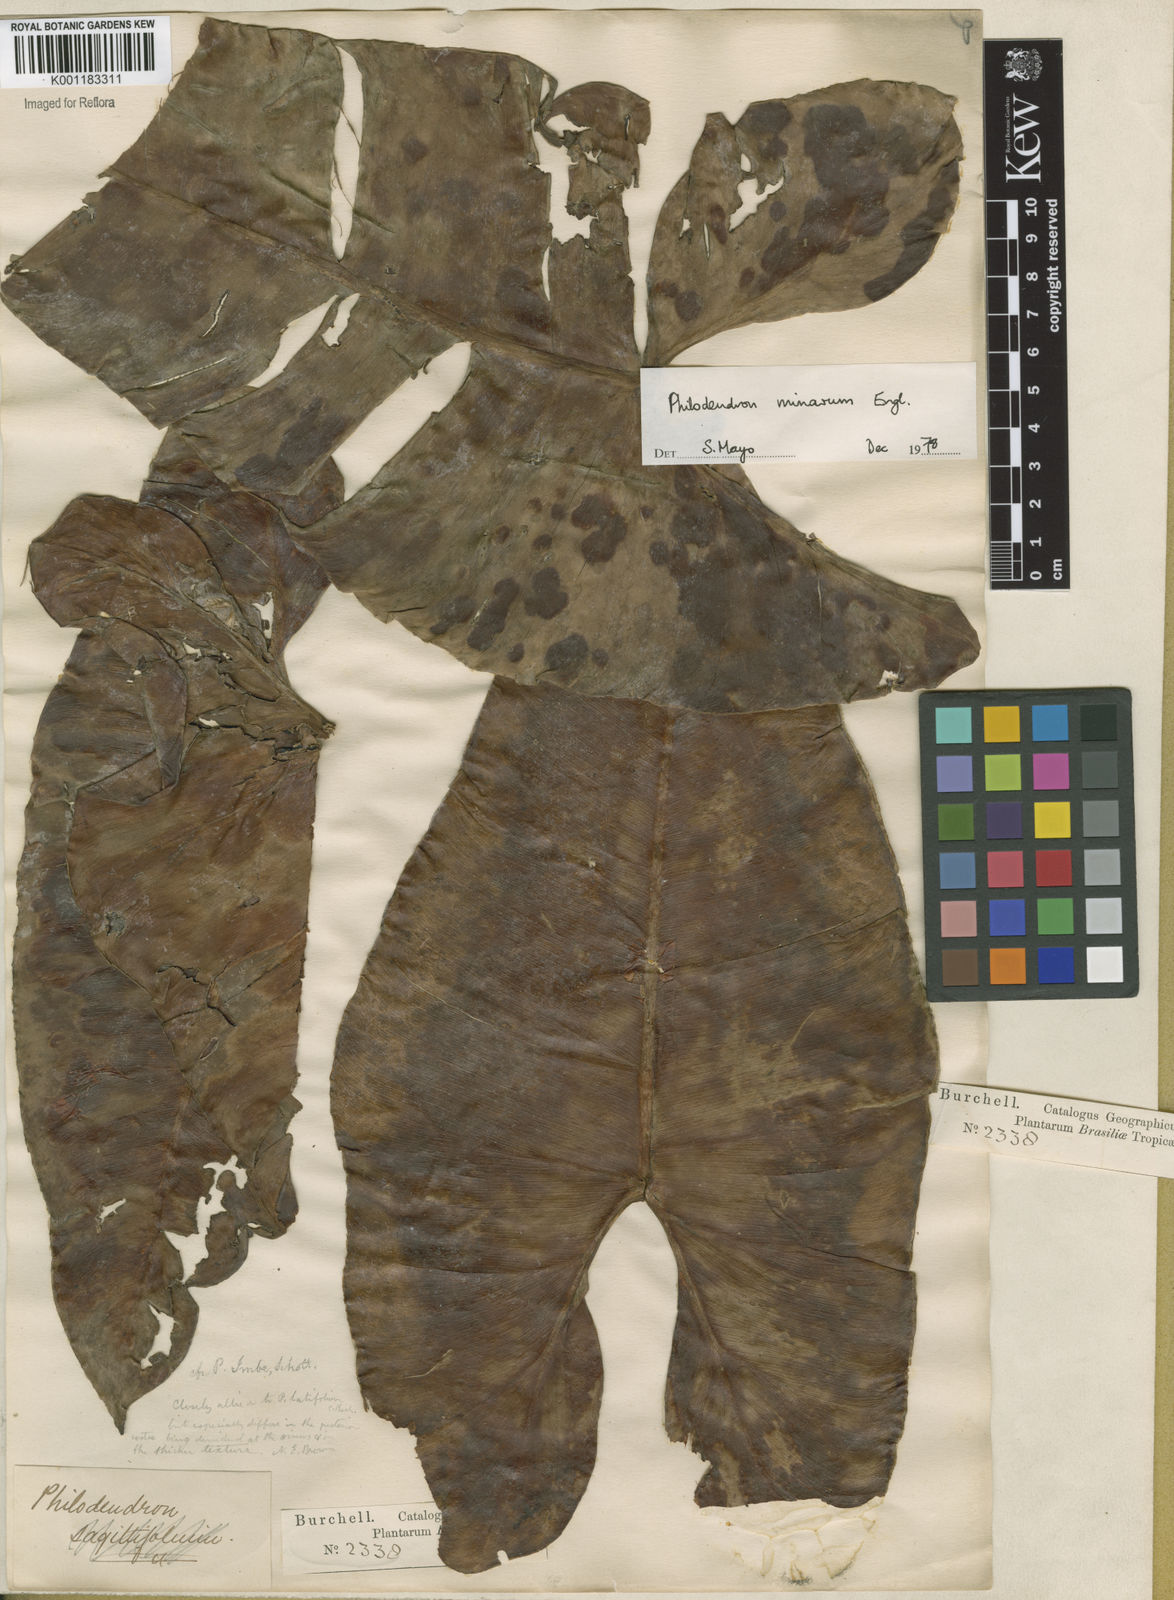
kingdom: Plantae
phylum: Tracheophyta
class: Liliopsida
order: Alismatales
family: Araceae
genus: Philodendron
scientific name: Philodendron minarum
